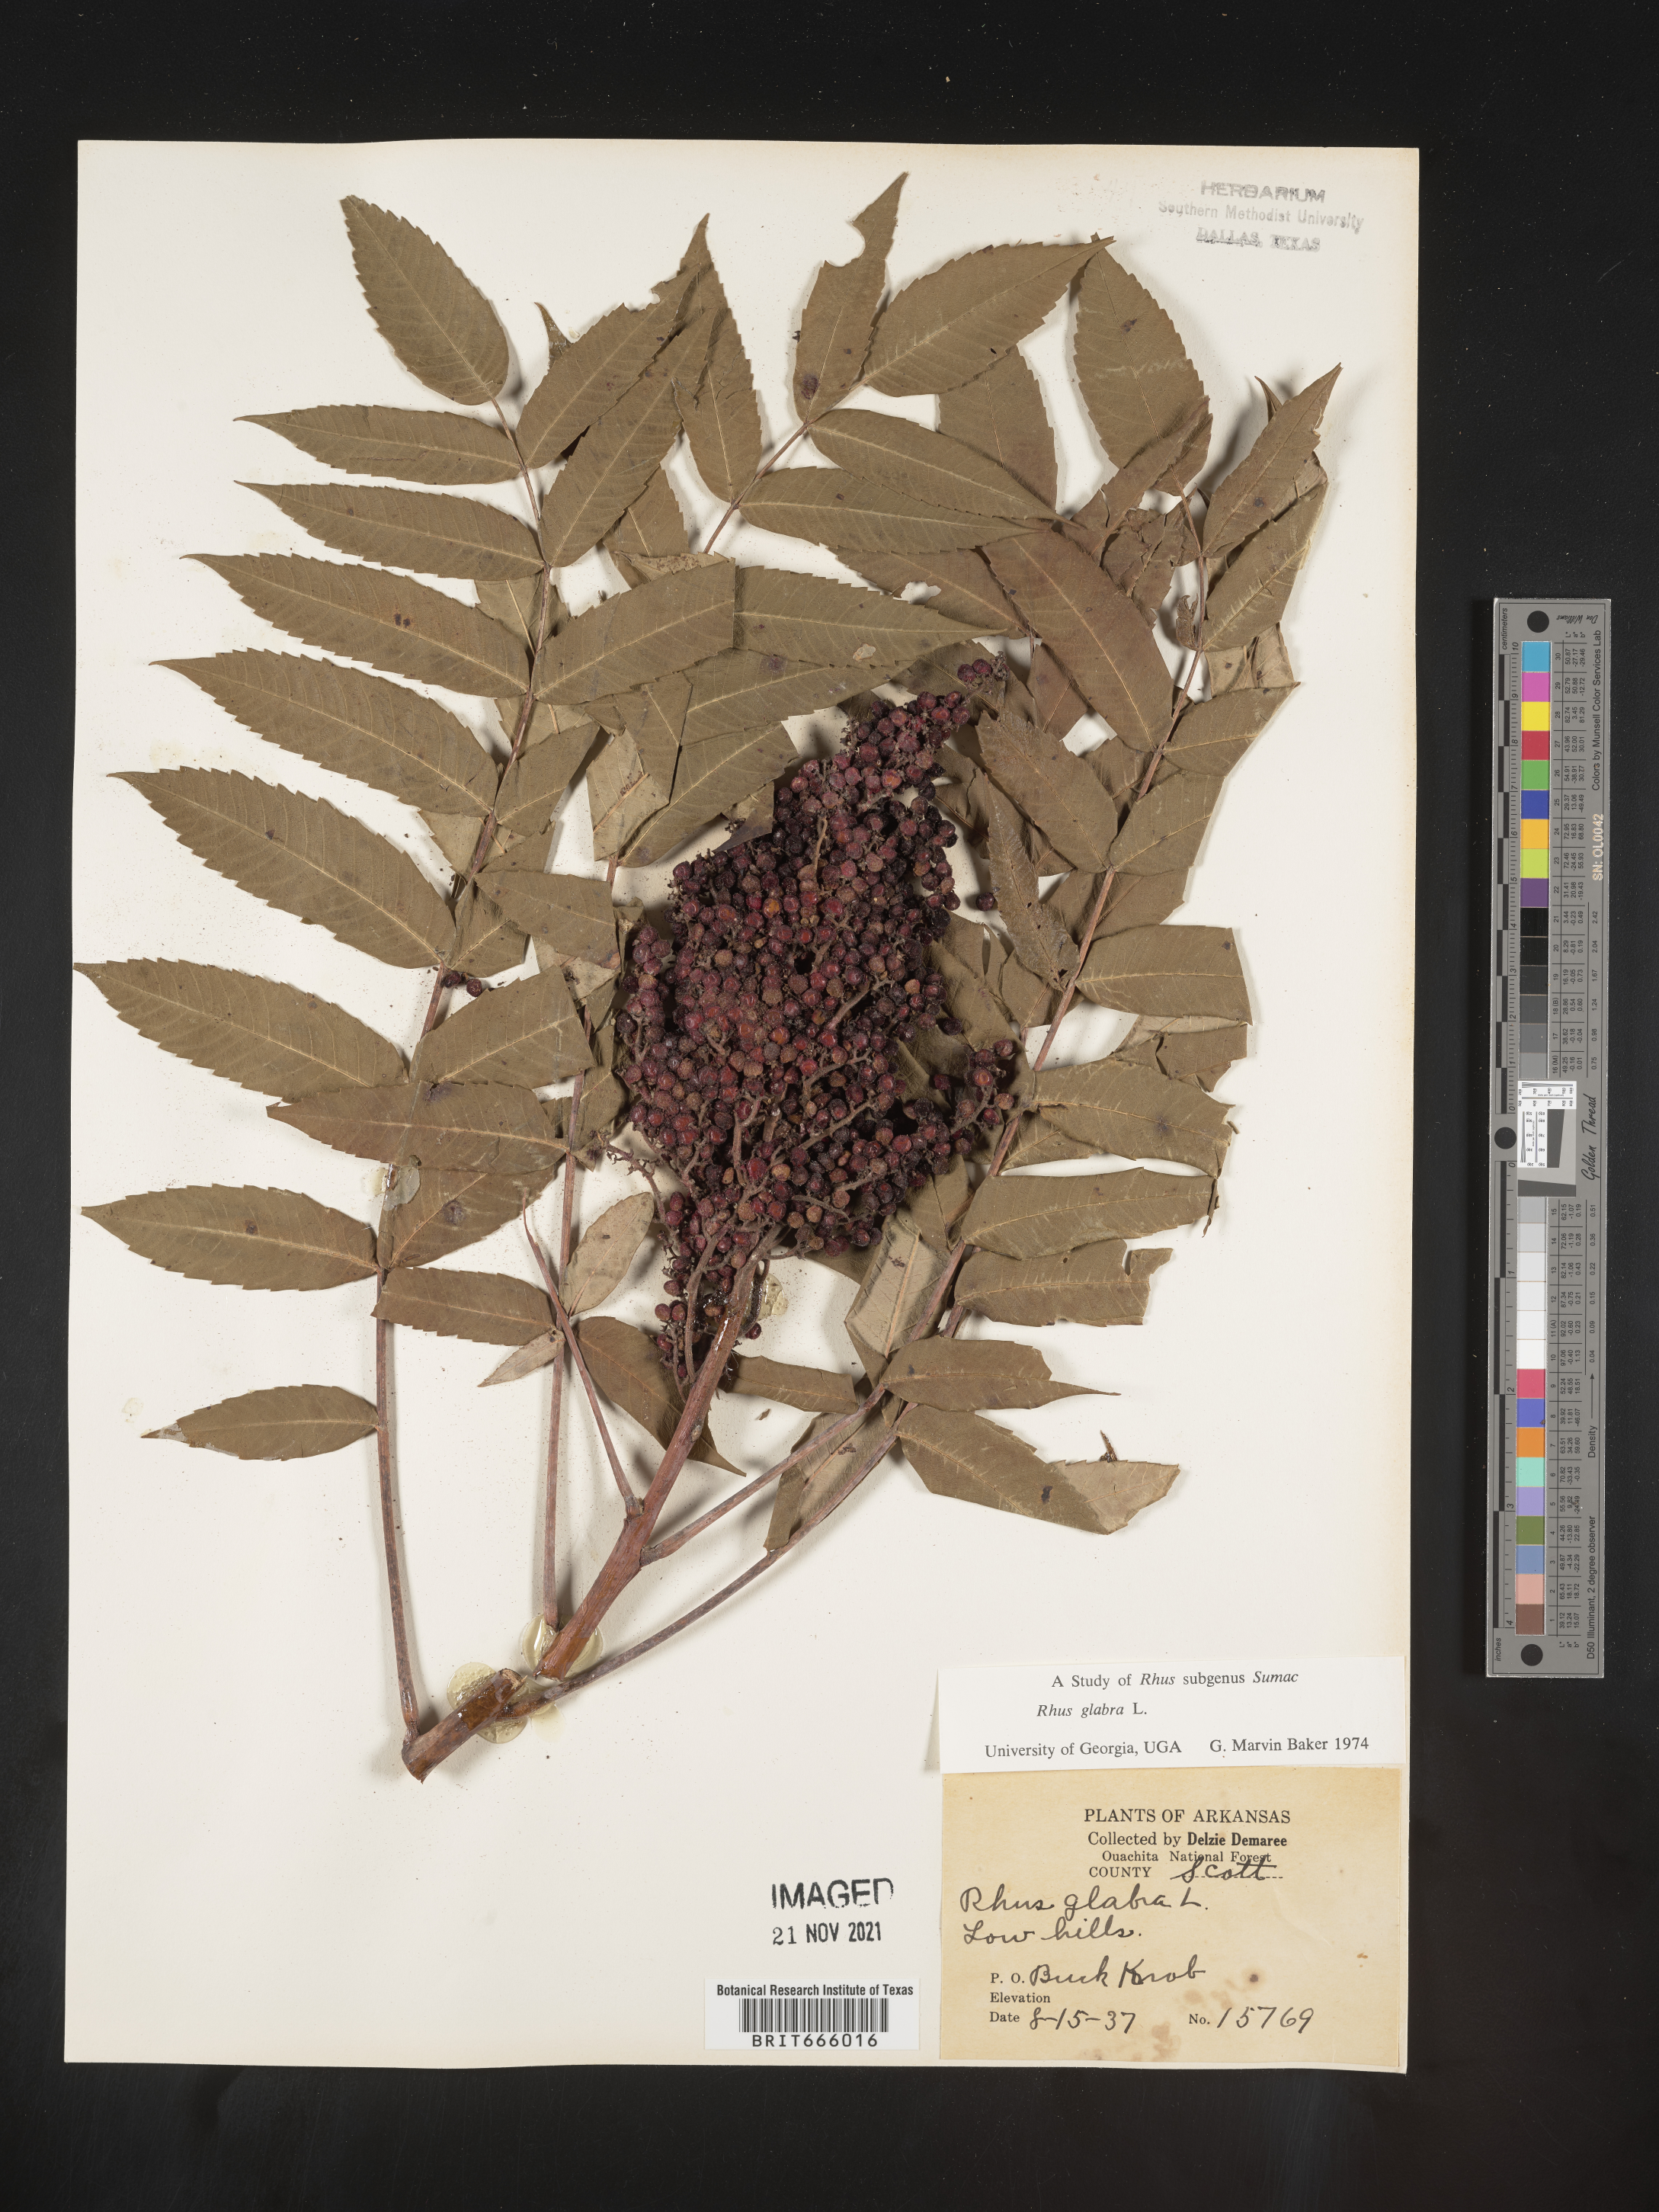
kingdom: Plantae
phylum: Tracheophyta
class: Magnoliopsida
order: Sapindales
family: Anacardiaceae
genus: Rhus
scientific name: Rhus glabra
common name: Scarlet sumac
